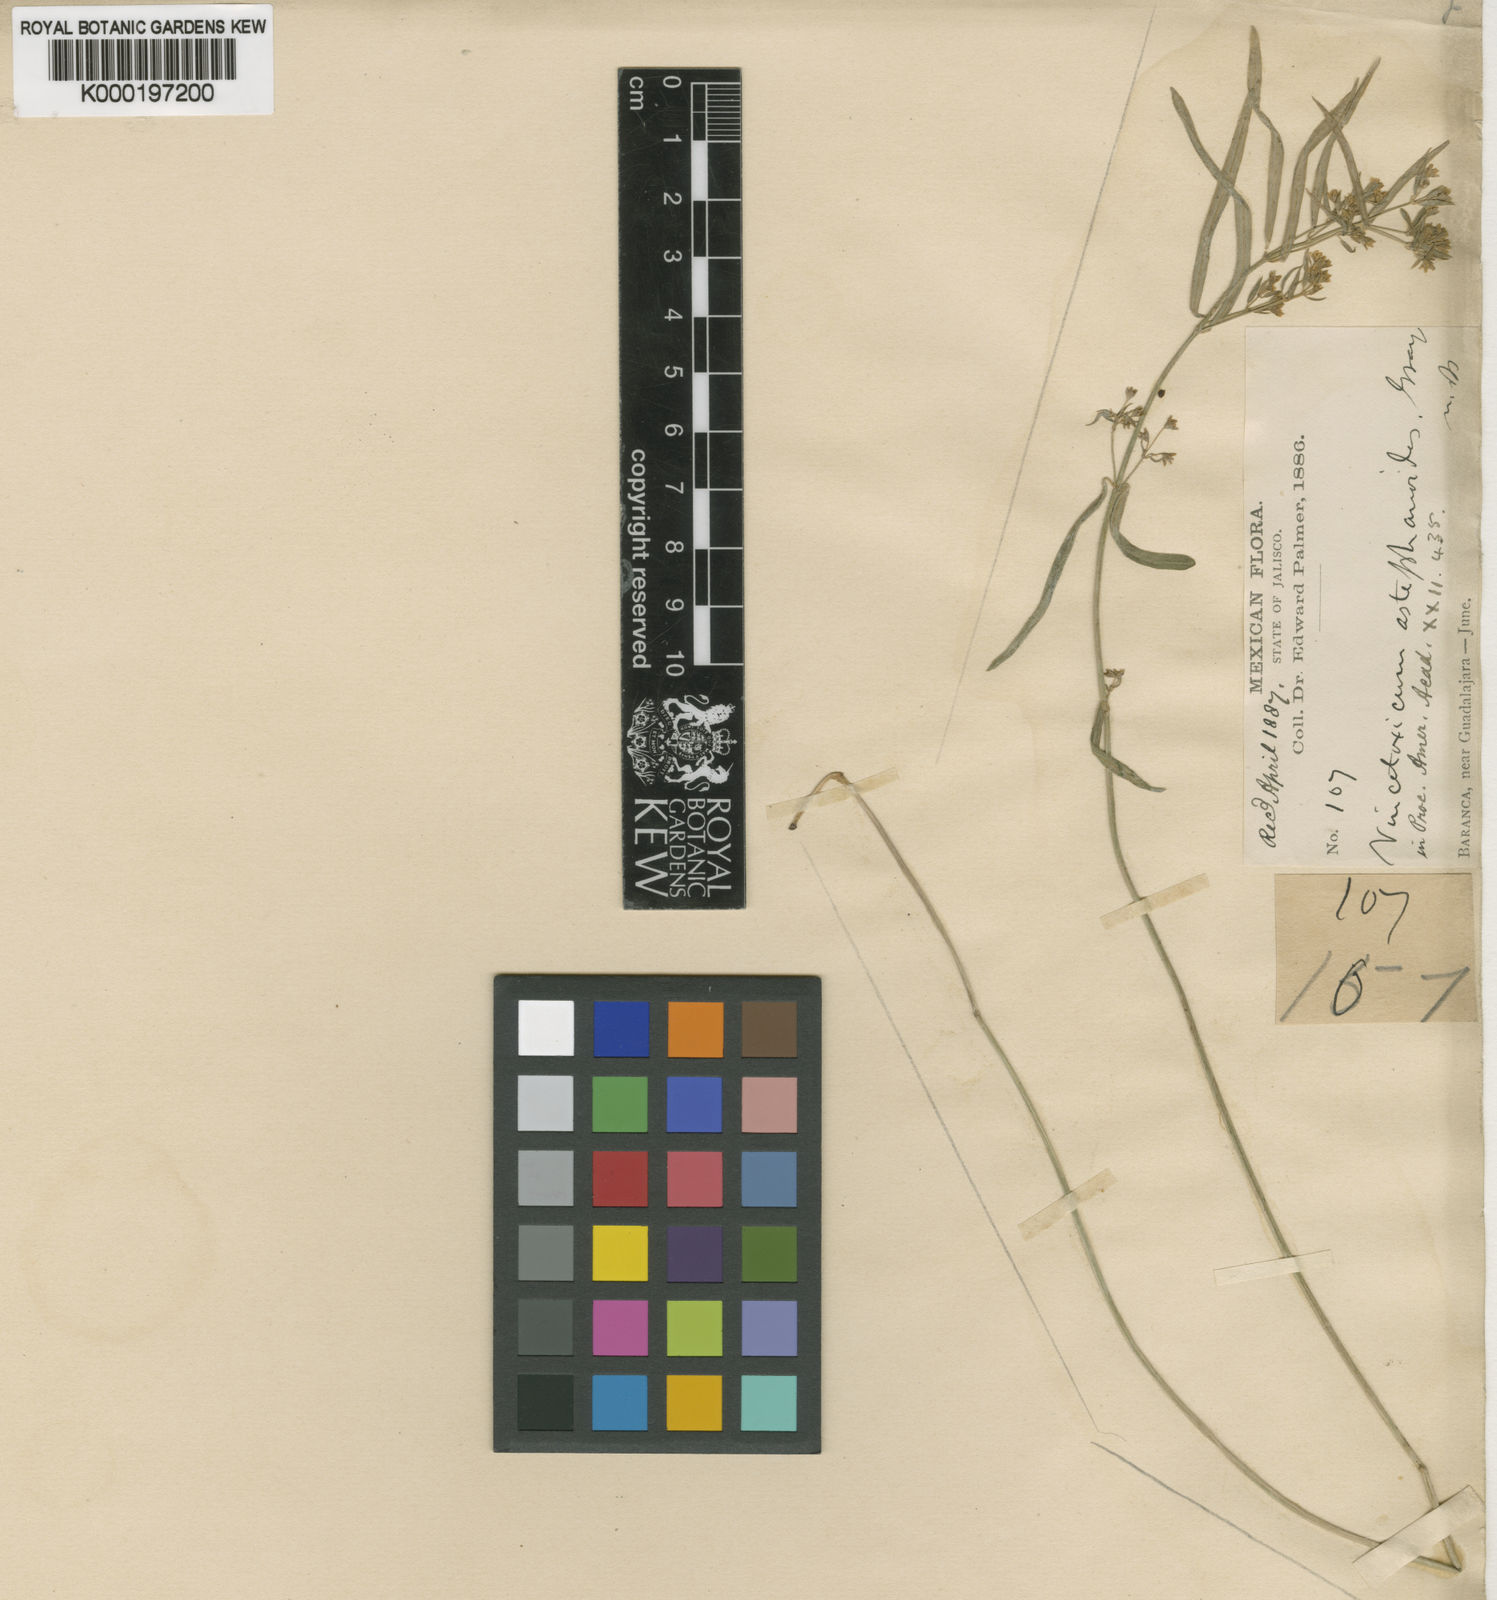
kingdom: Plantae
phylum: Tracheophyta
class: Magnoliopsida
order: Gentianales
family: Apocynaceae
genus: Ruehssia
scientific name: Ruehssia astephanoides
